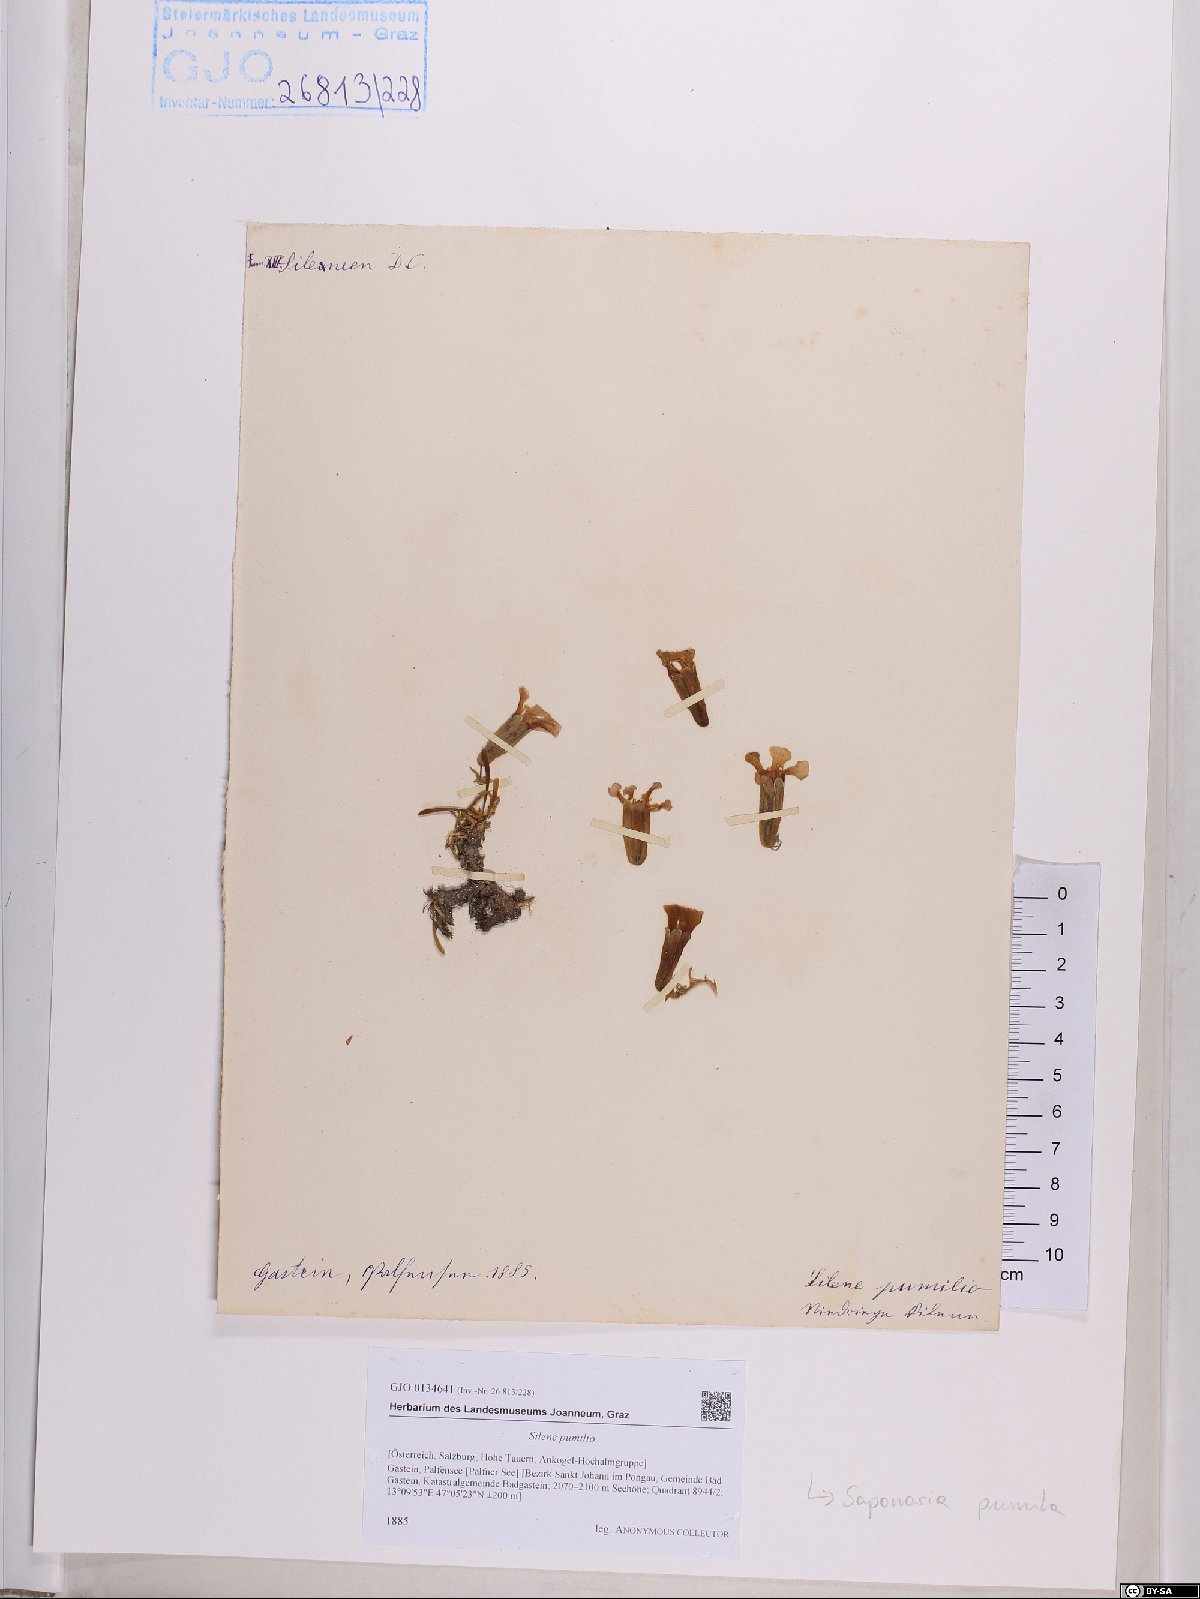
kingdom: Plantae
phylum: Tracheophyta
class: Magnoliopsida
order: Caryophyllales
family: Caryophyllaceae
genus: Saponaria
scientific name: Saponaria pumila
